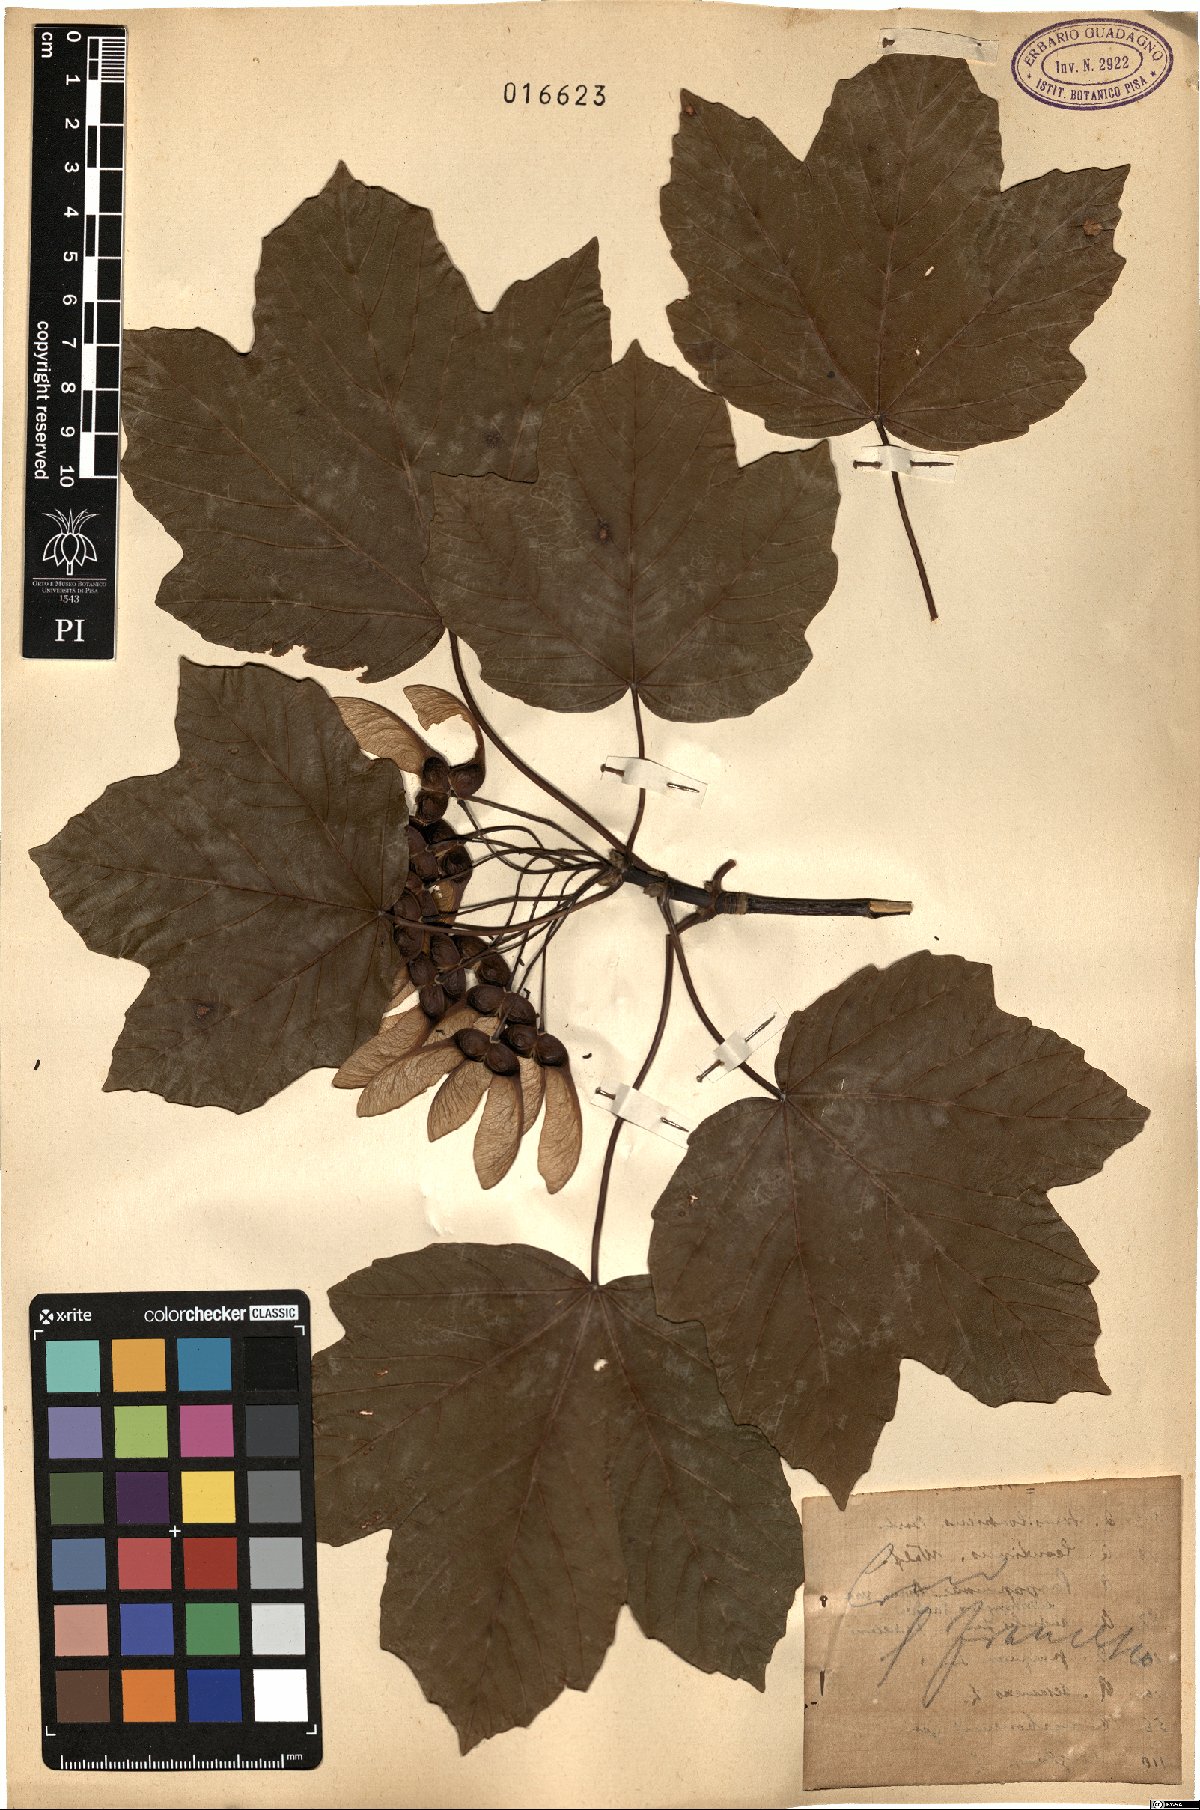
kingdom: Plantae
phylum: Tracheophyta
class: Magnoliopsida
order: Sapindales
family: Sapindaceae
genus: Acer
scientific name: Acer
